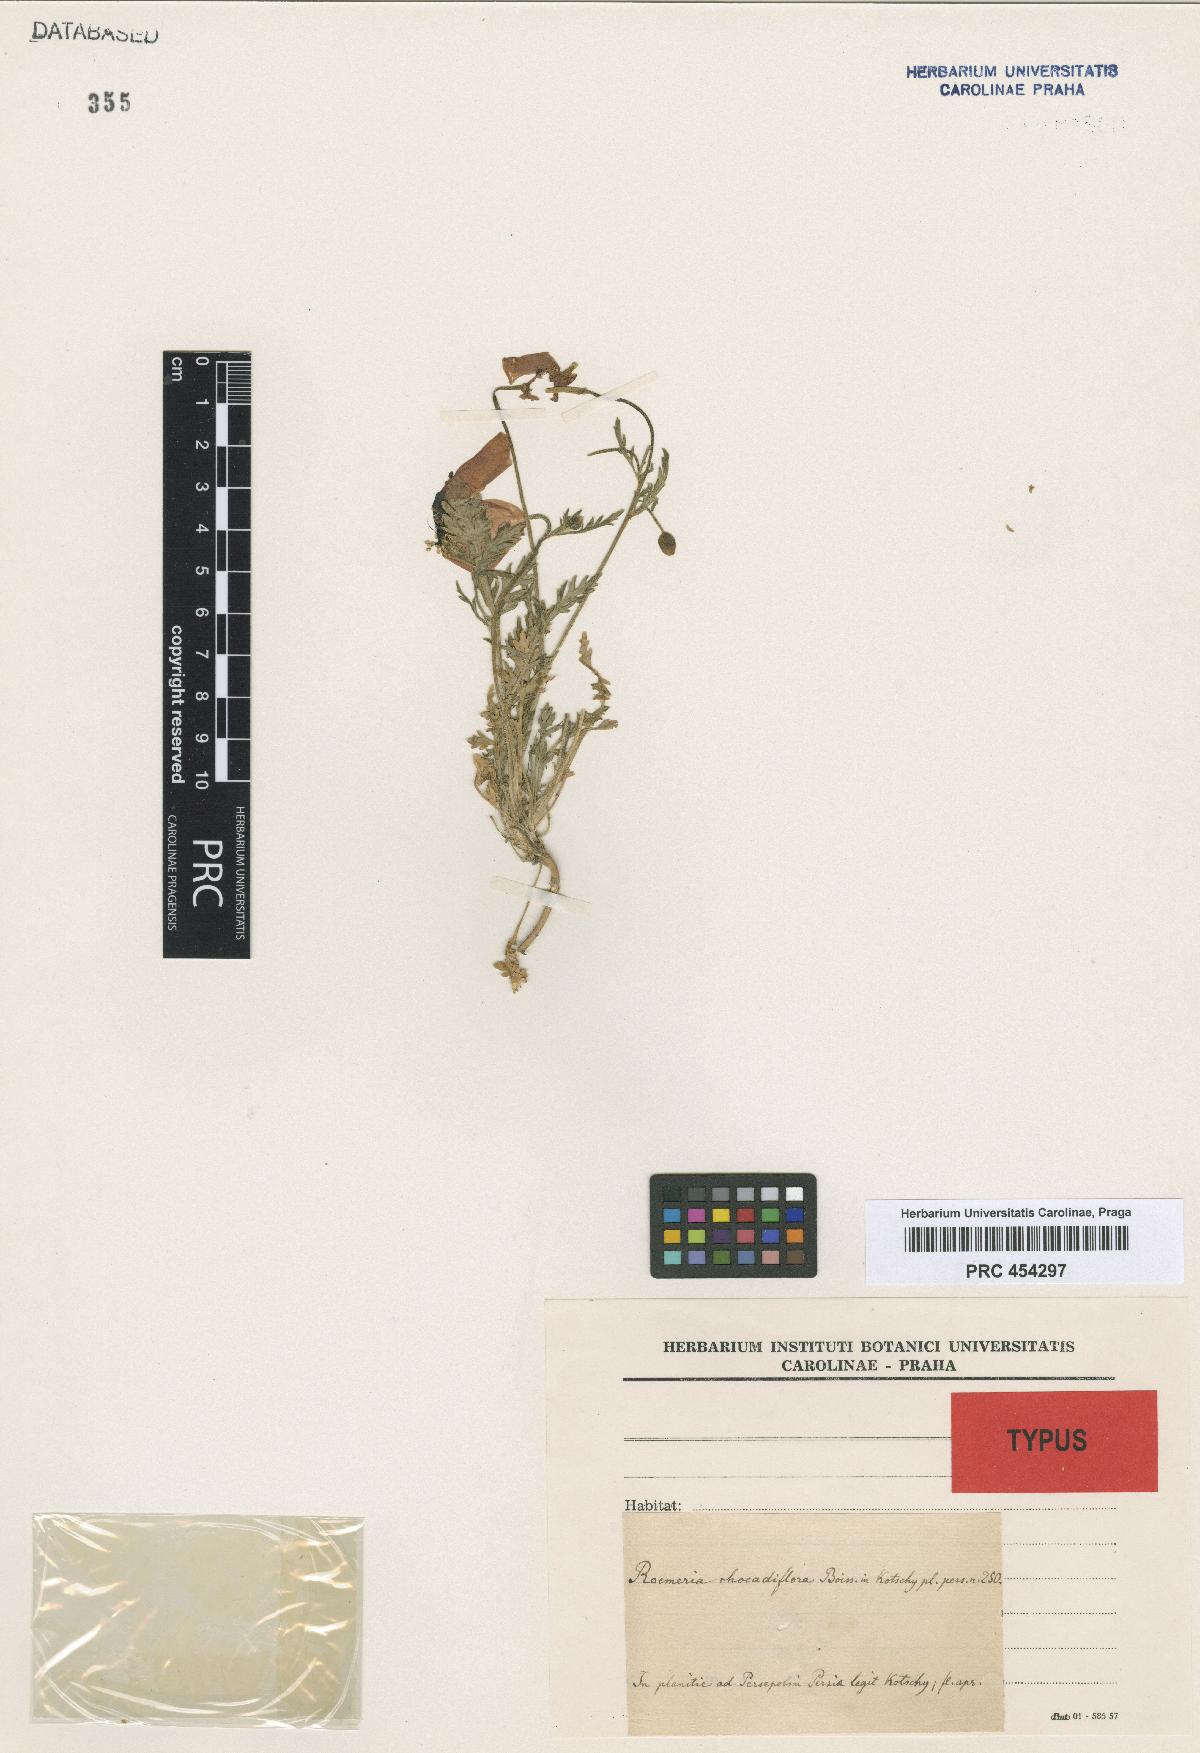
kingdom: Plantae
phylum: Tracheophyta
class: Magnoliopsida
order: Ranunculales
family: Papaveraceae
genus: Roemeria
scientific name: Roemeria refracta
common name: Spotted asian poppy
